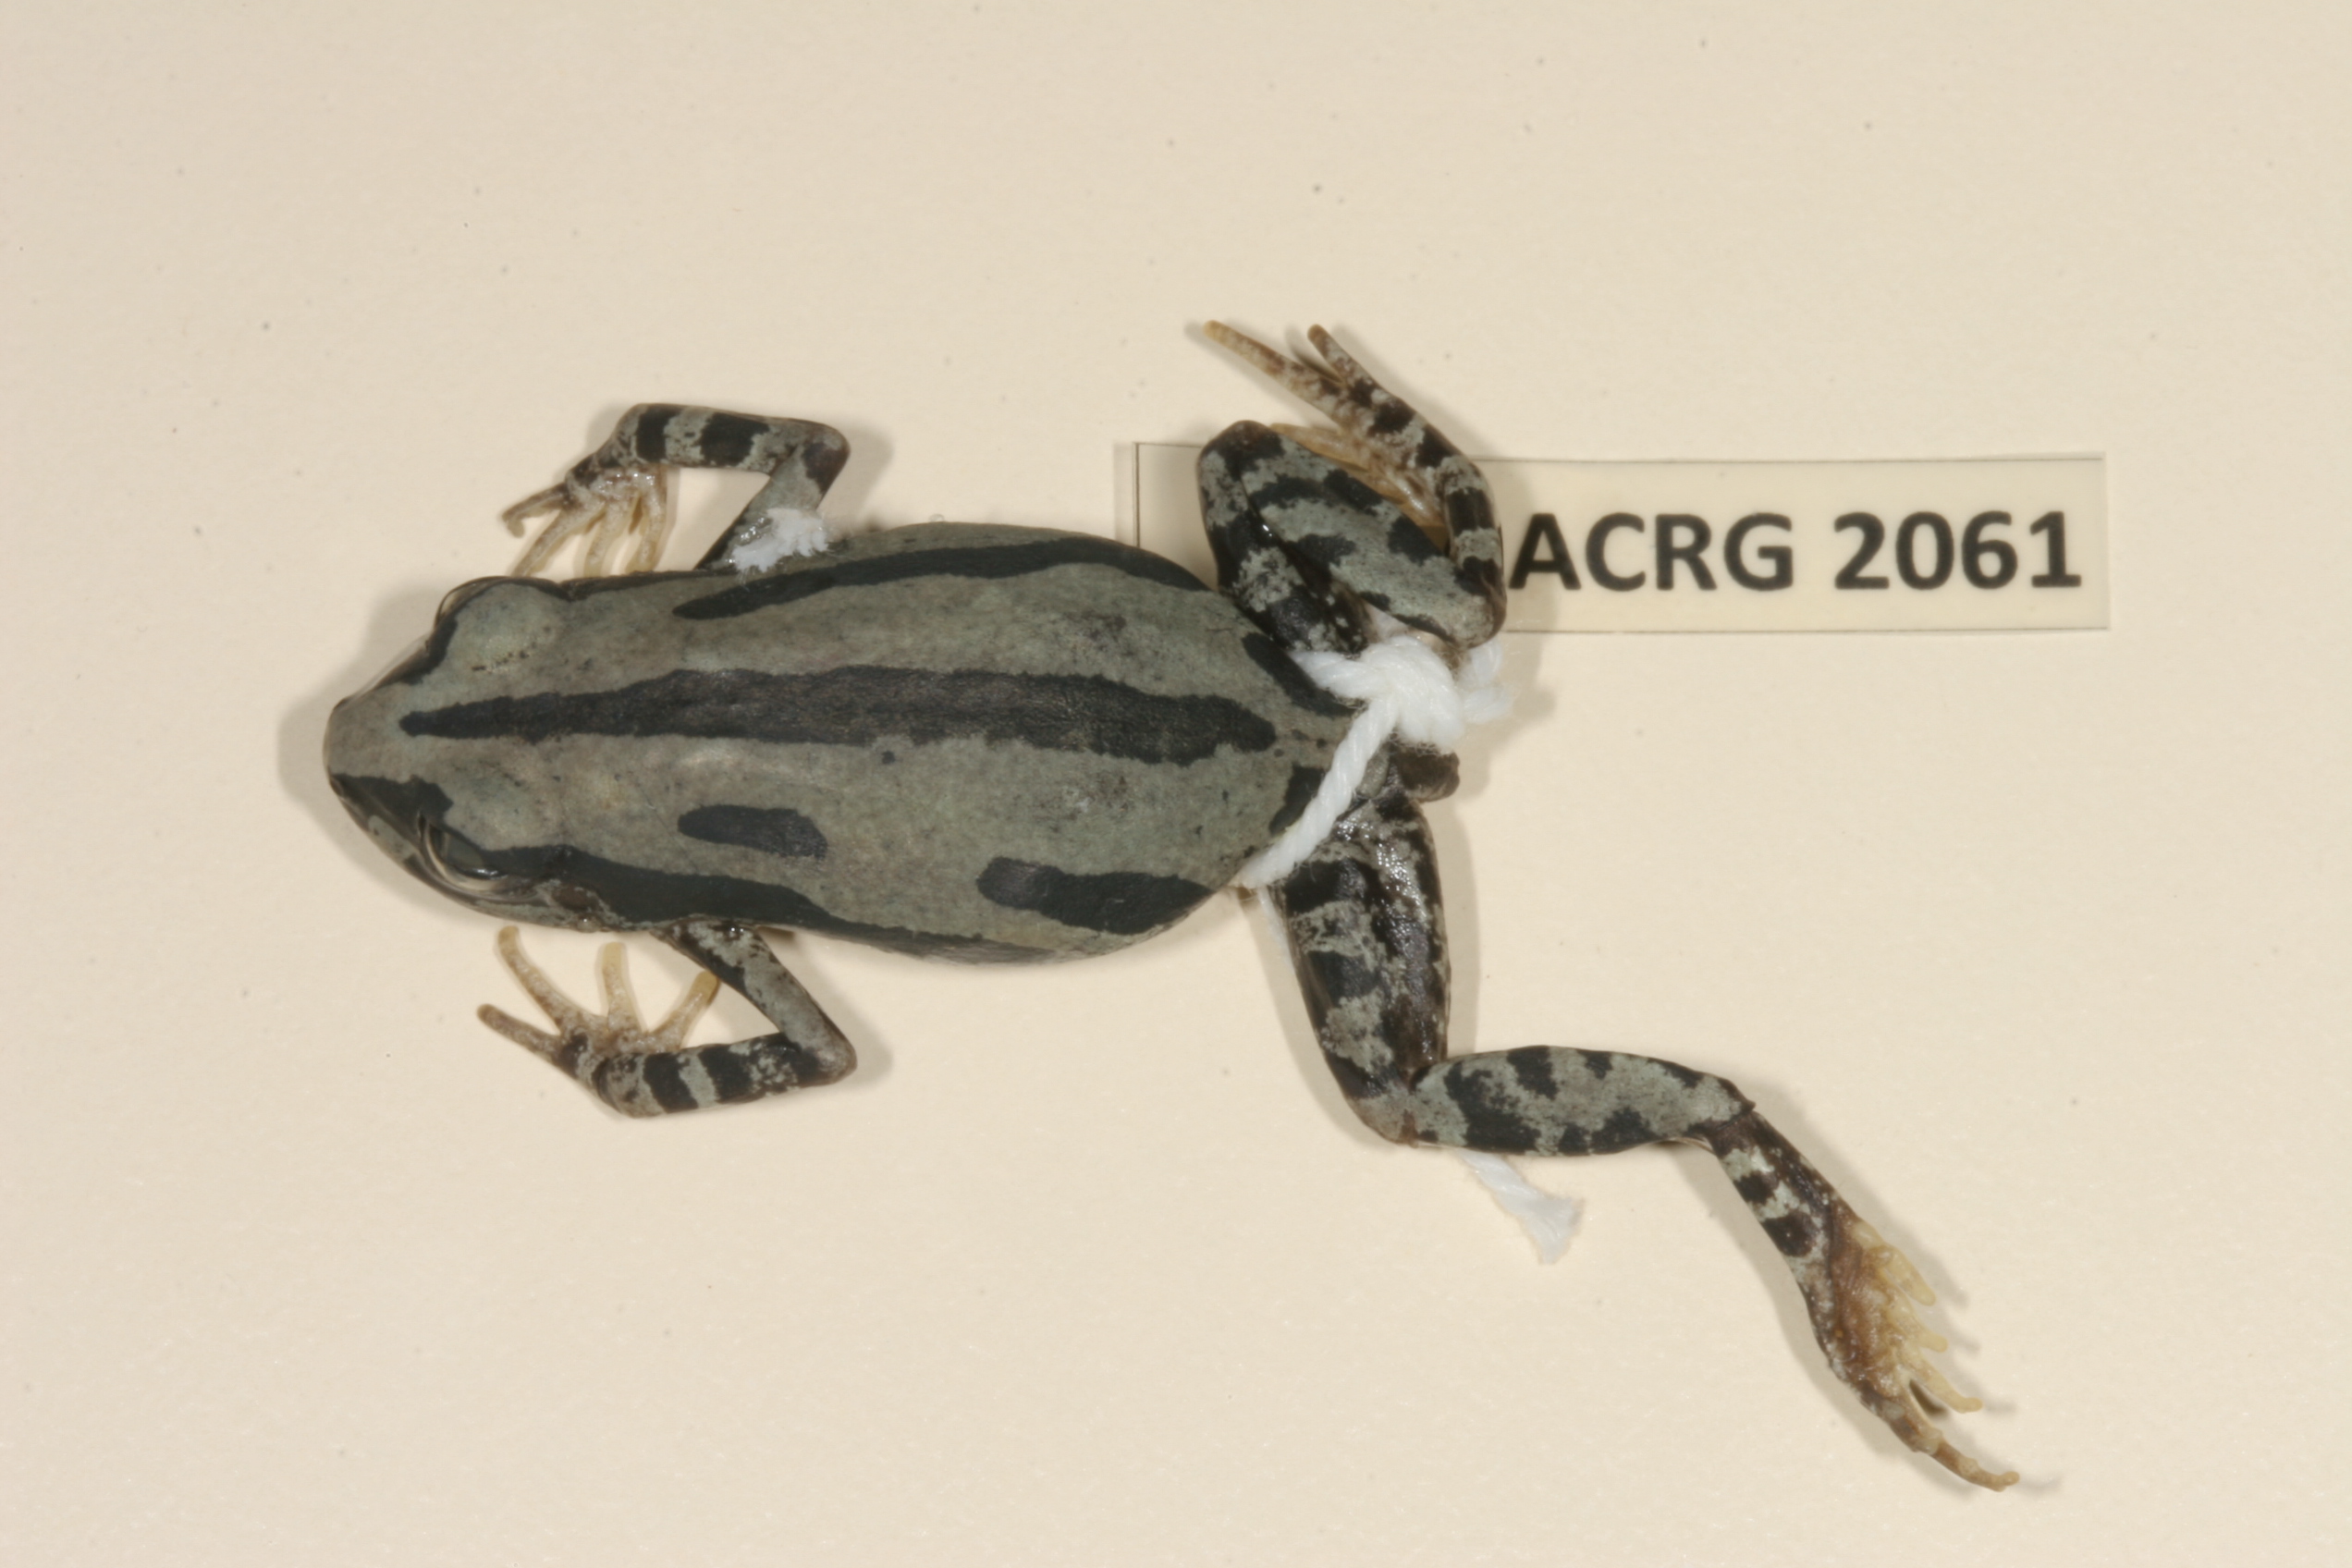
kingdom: Animalia
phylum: Chordata
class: Amphibia
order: Anura
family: Hyperoliidae
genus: Kassina
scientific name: Kassina senegalensis
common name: Senegal land frog
